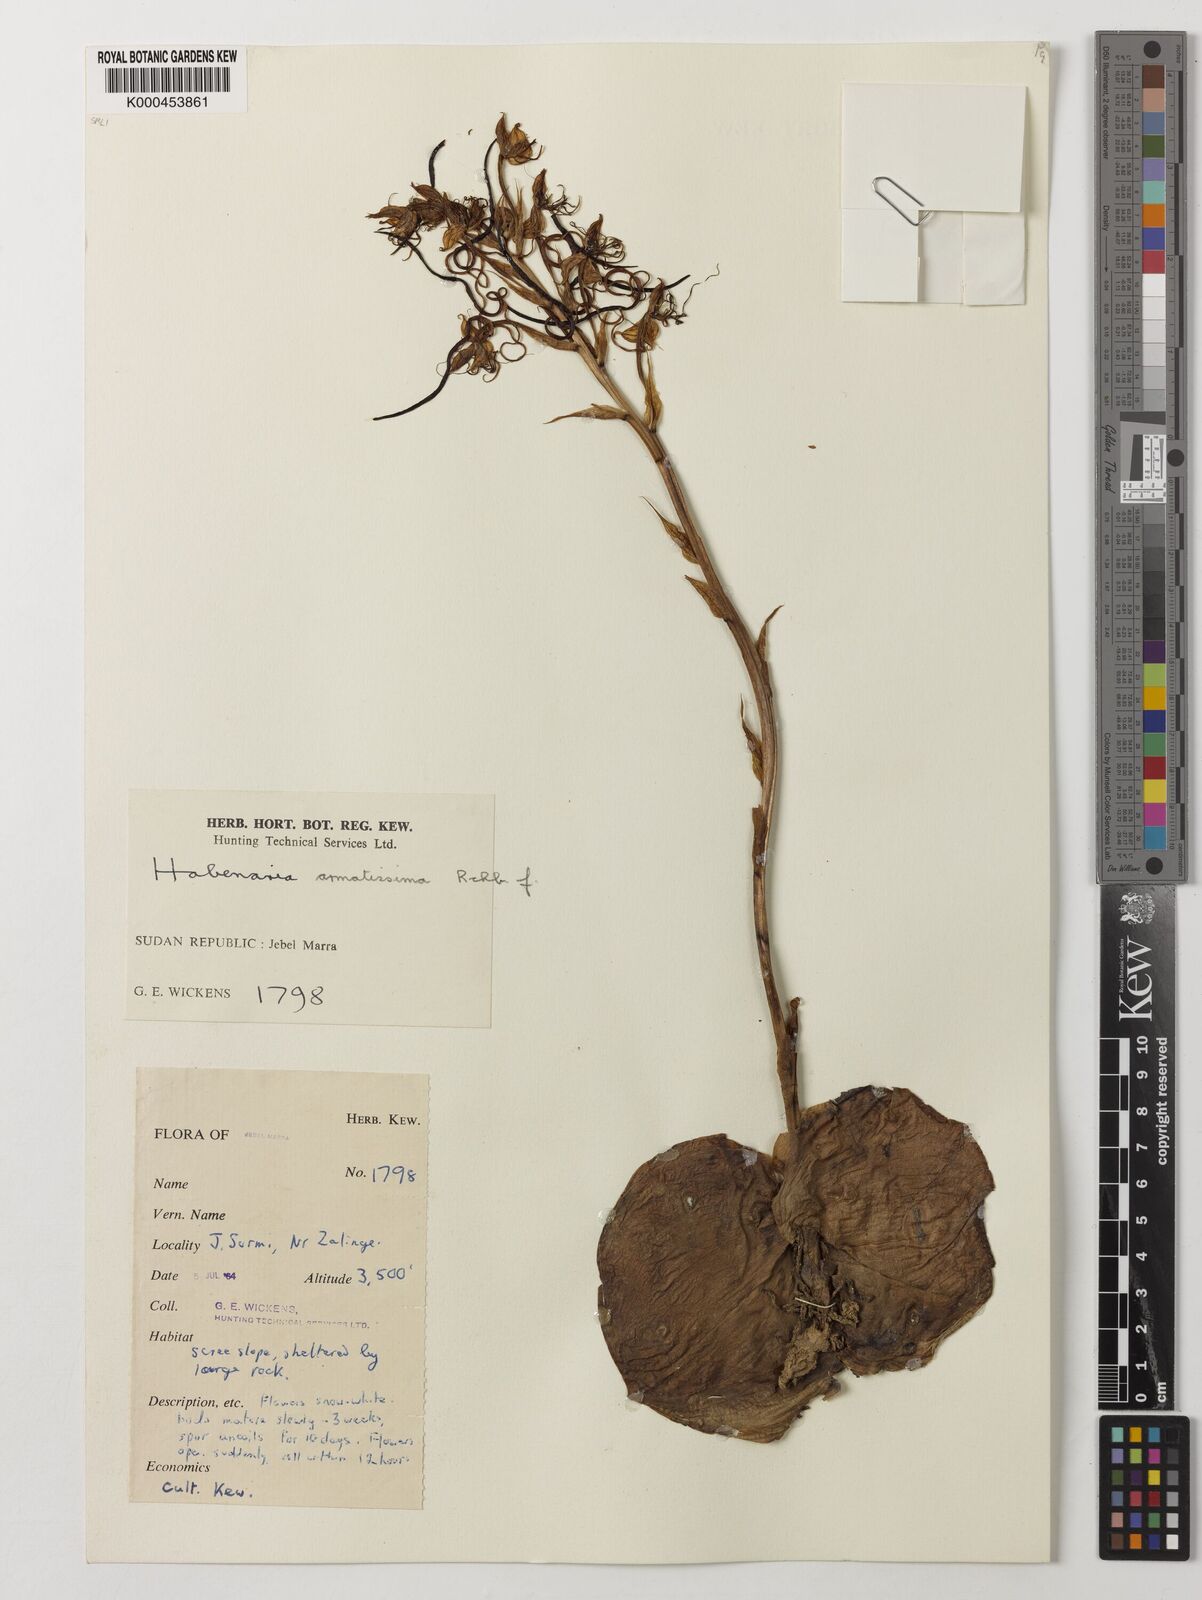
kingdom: Plantae
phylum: Tracheophyta
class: Liliopsida
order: Asparagales
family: Orchidaceae
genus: Habenaria
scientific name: Habenaria armatissima
